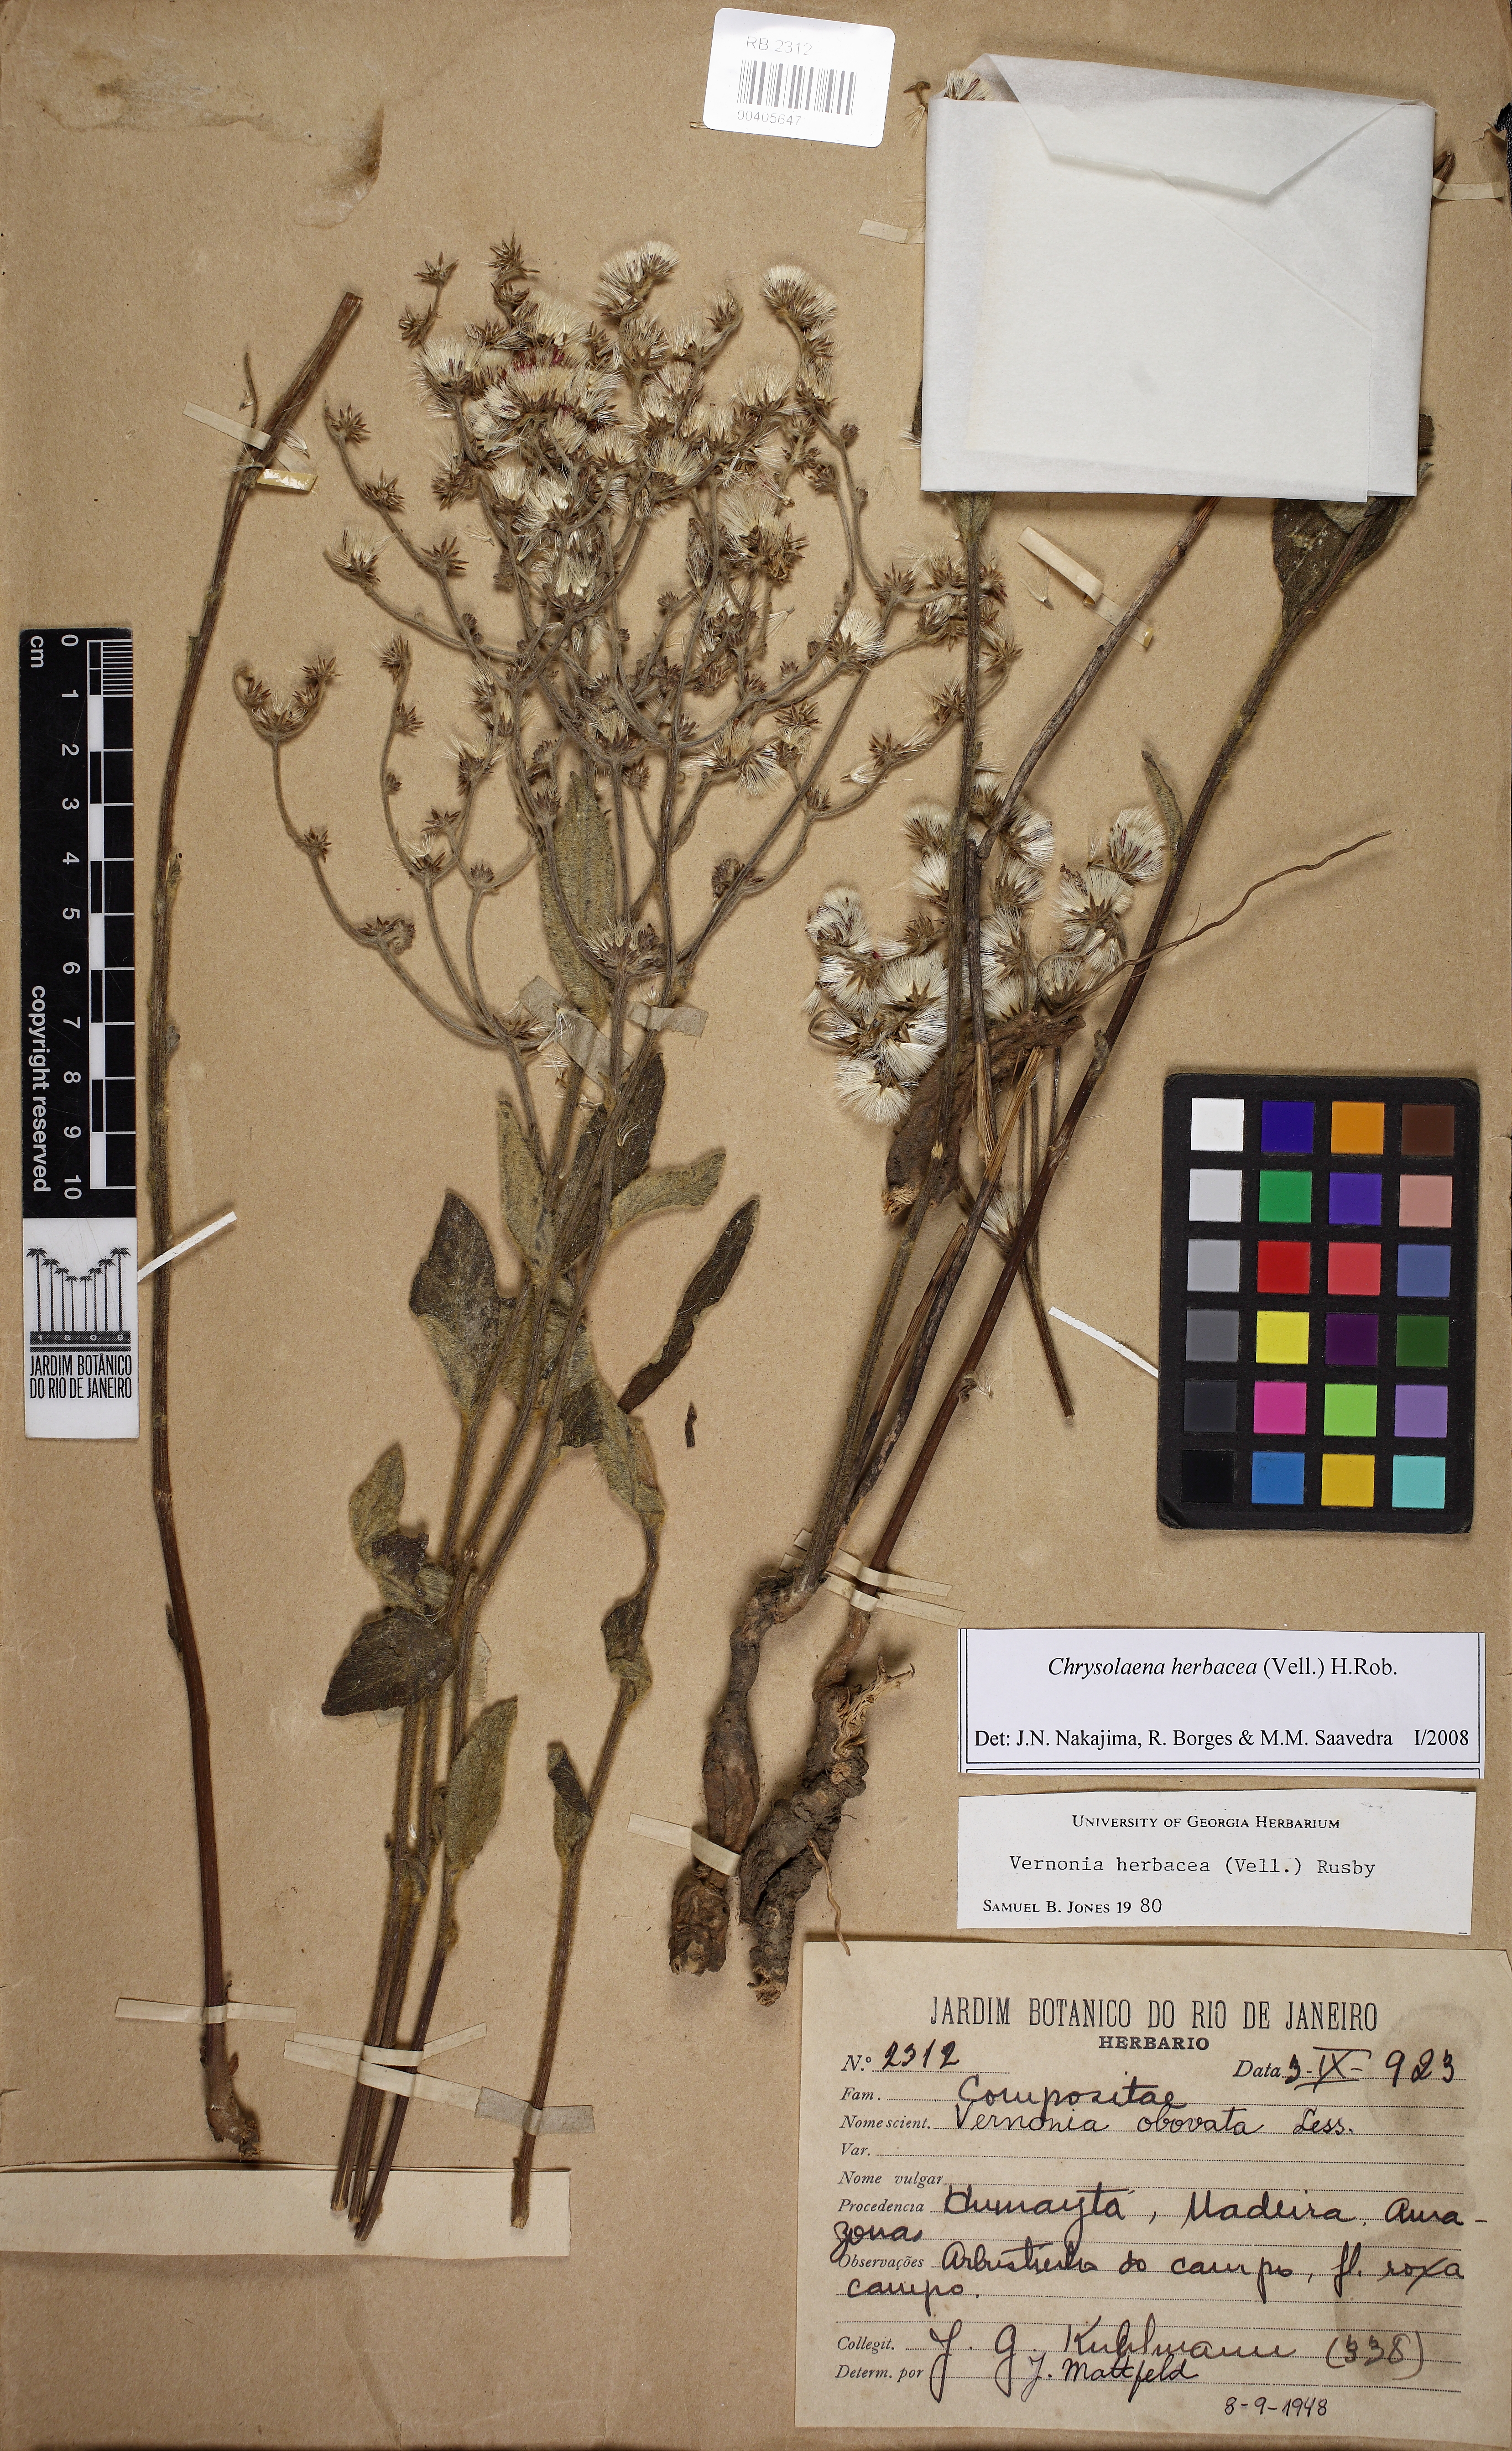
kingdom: Plantae
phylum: Tracheophyta
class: Magnoliopsida
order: Asterales
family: Asteraceae
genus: Chrysolaena
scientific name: Chrysolaena obovata
